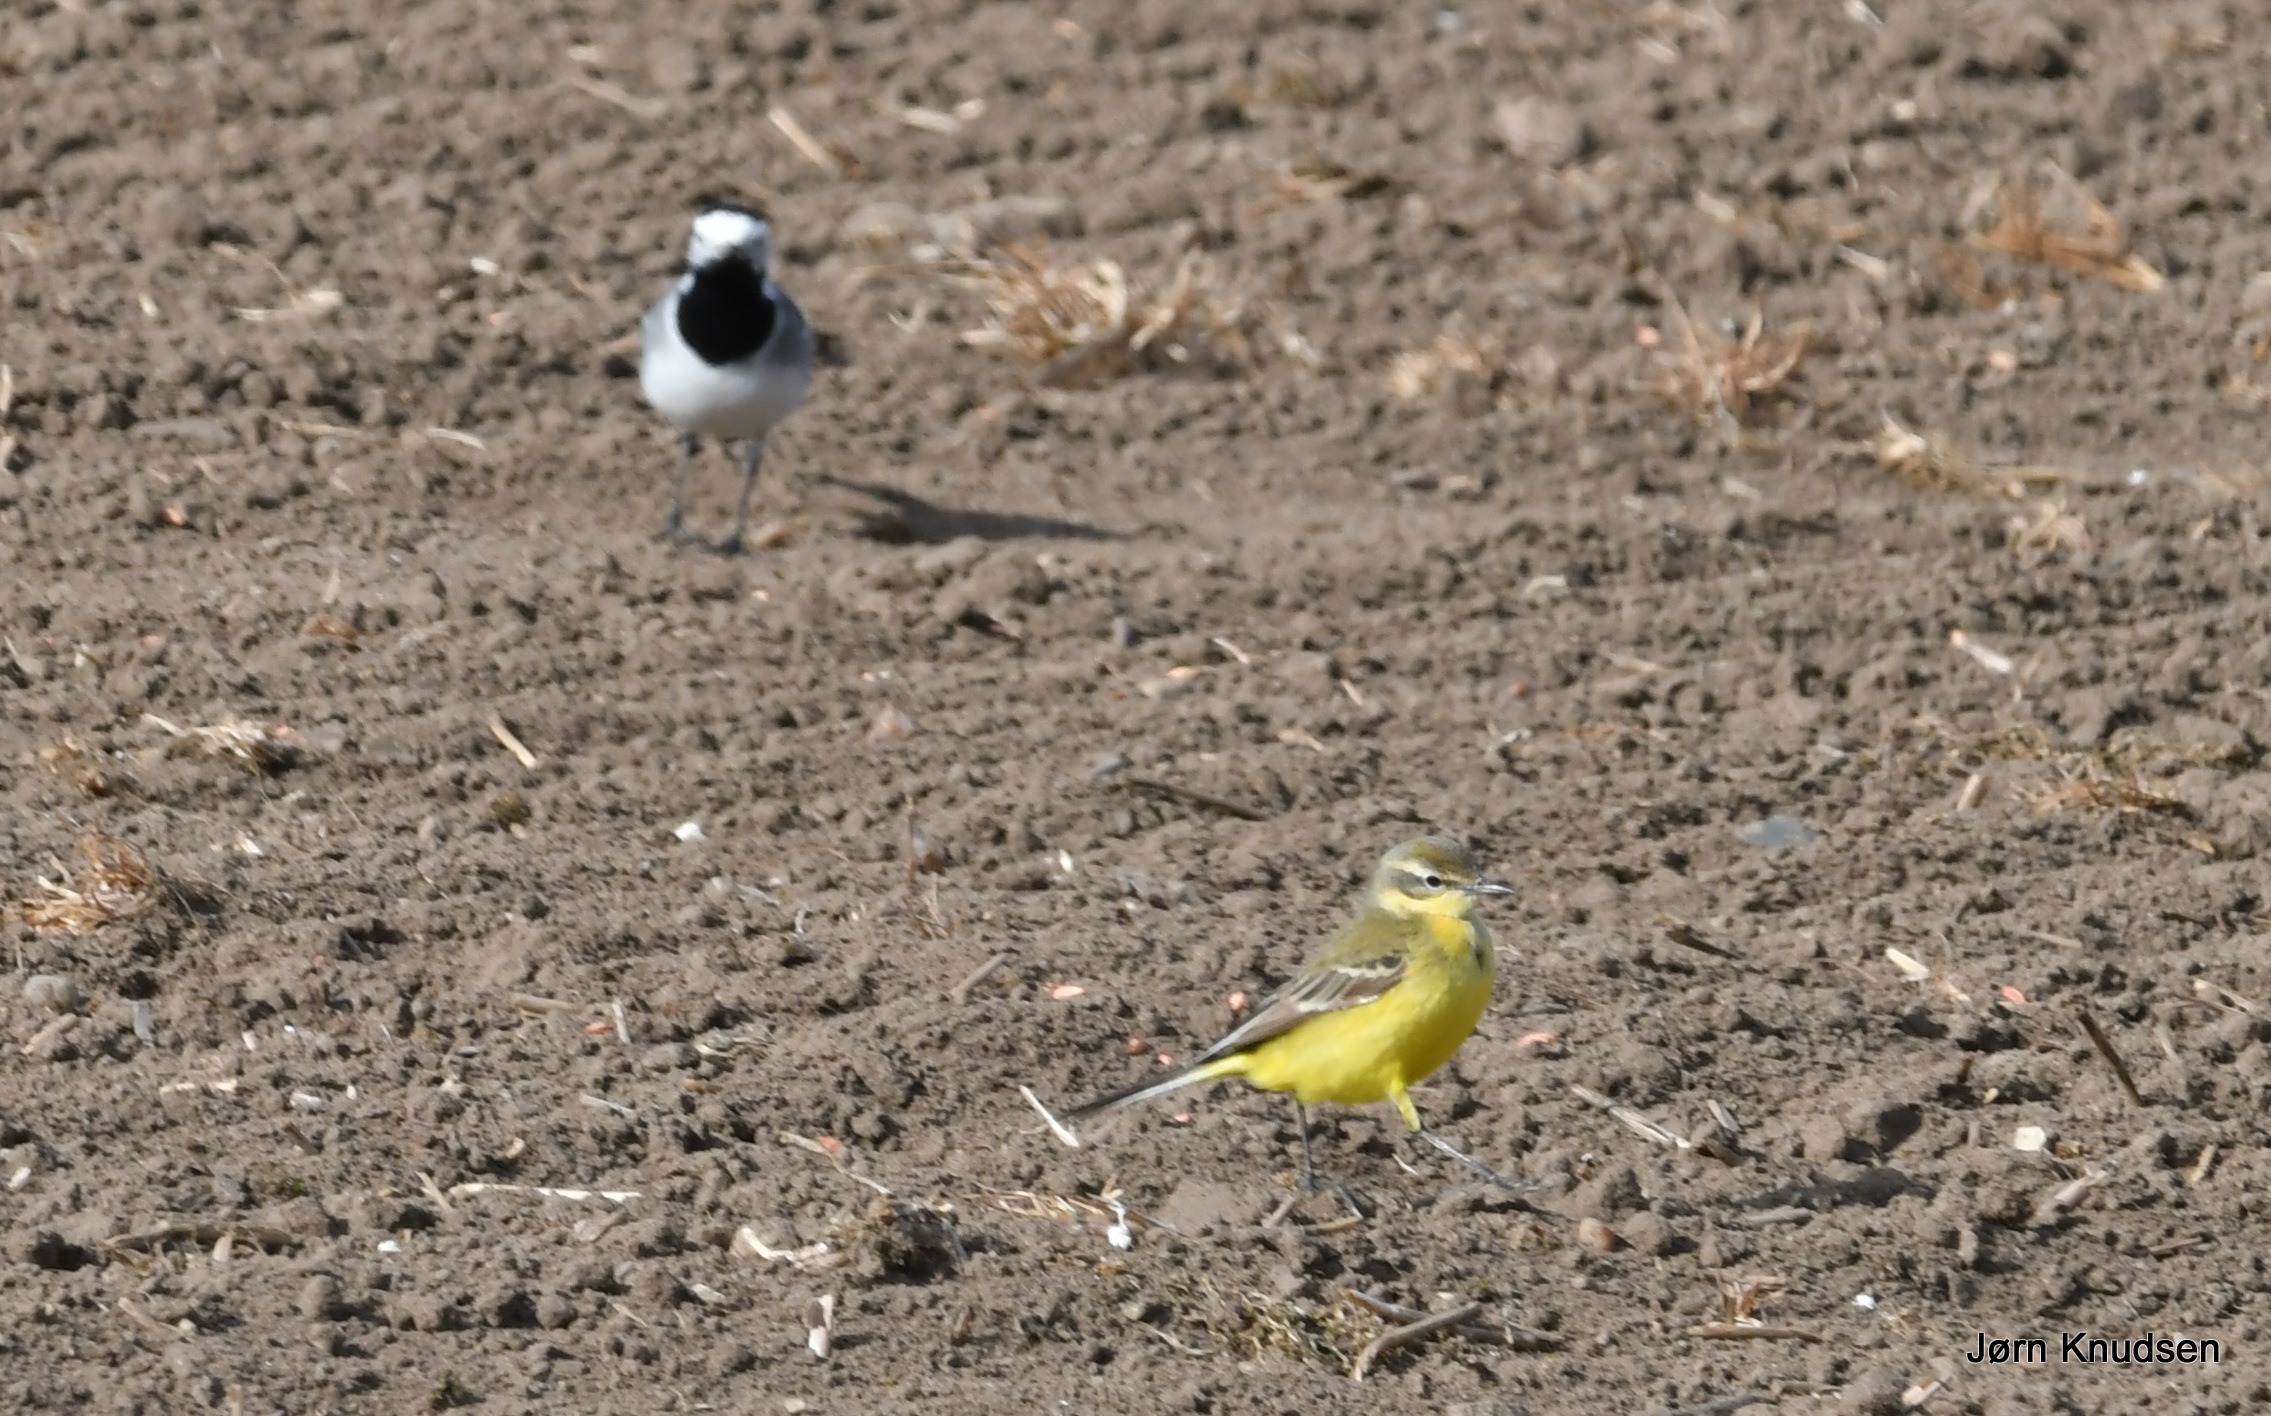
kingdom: Animalia
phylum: Chordata
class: Aves
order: Passeriformes
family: Motacillidae
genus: Motacilla
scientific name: Motacilla flava
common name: Gul vipstjert
